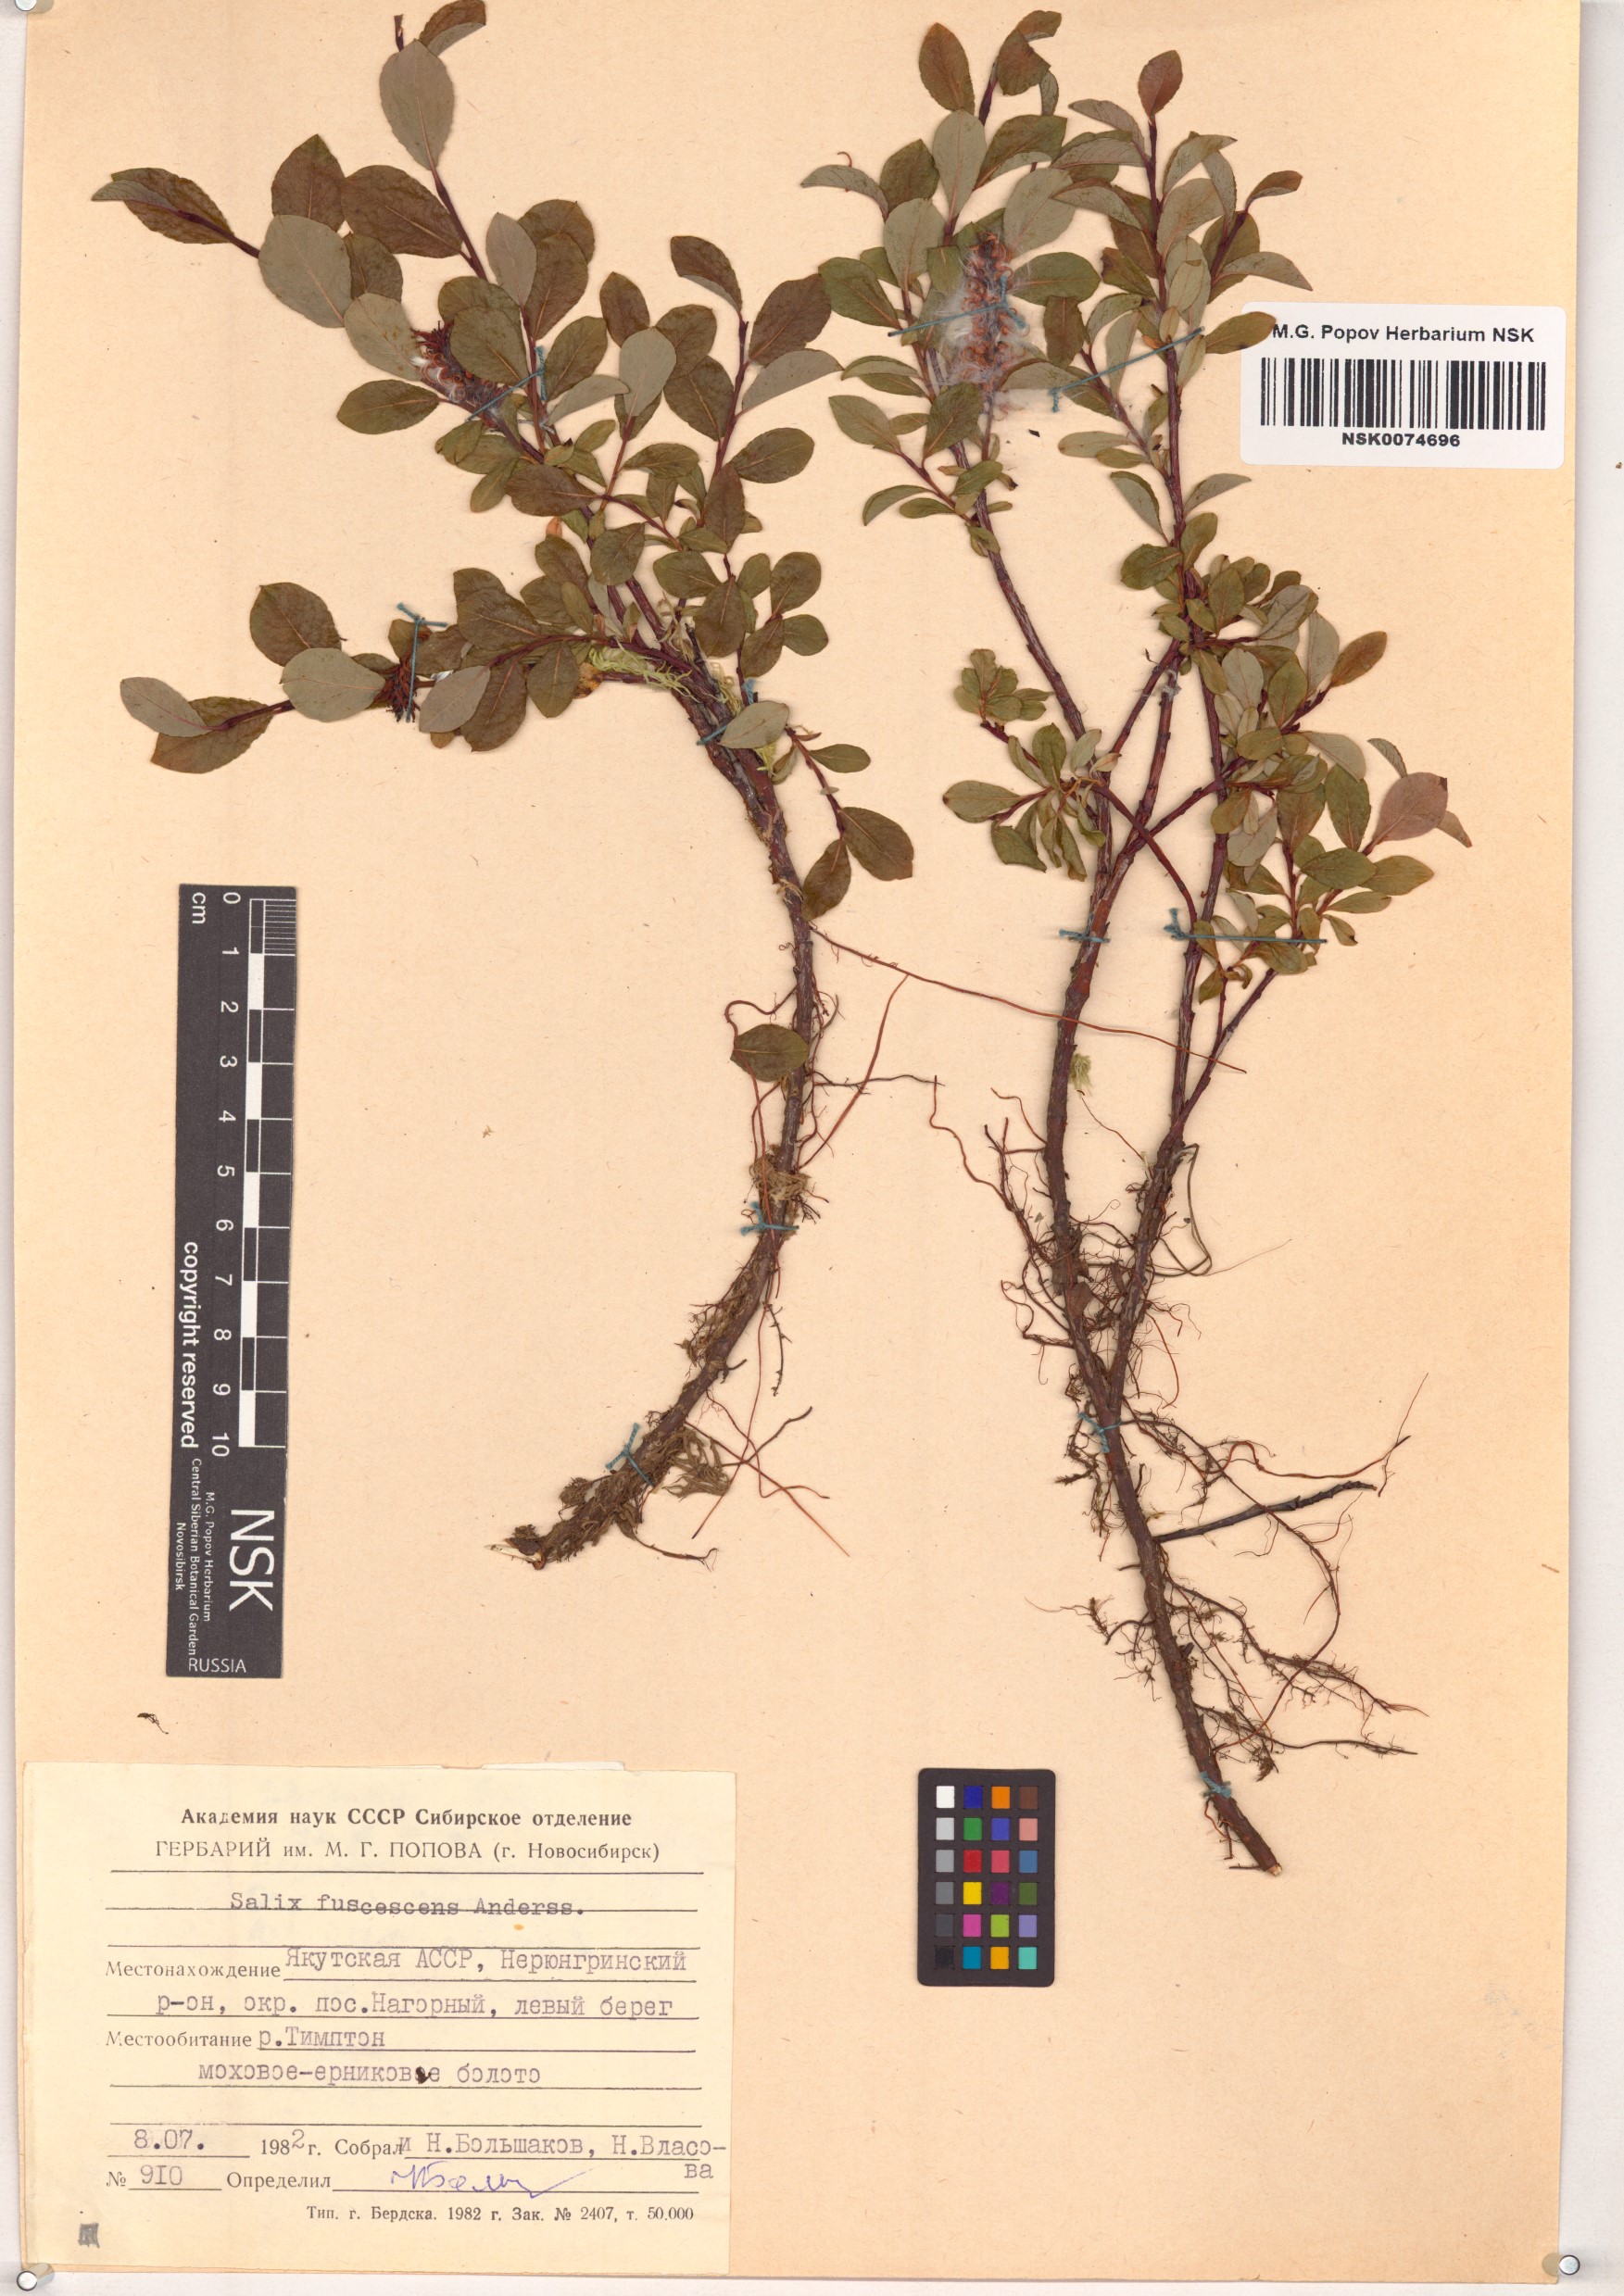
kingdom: Plantae
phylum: Tracheophyta
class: Magnoliopsida
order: Malpighiales
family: Salicaceae
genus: Salix
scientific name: Salix fuscescens
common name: Brownish willow
